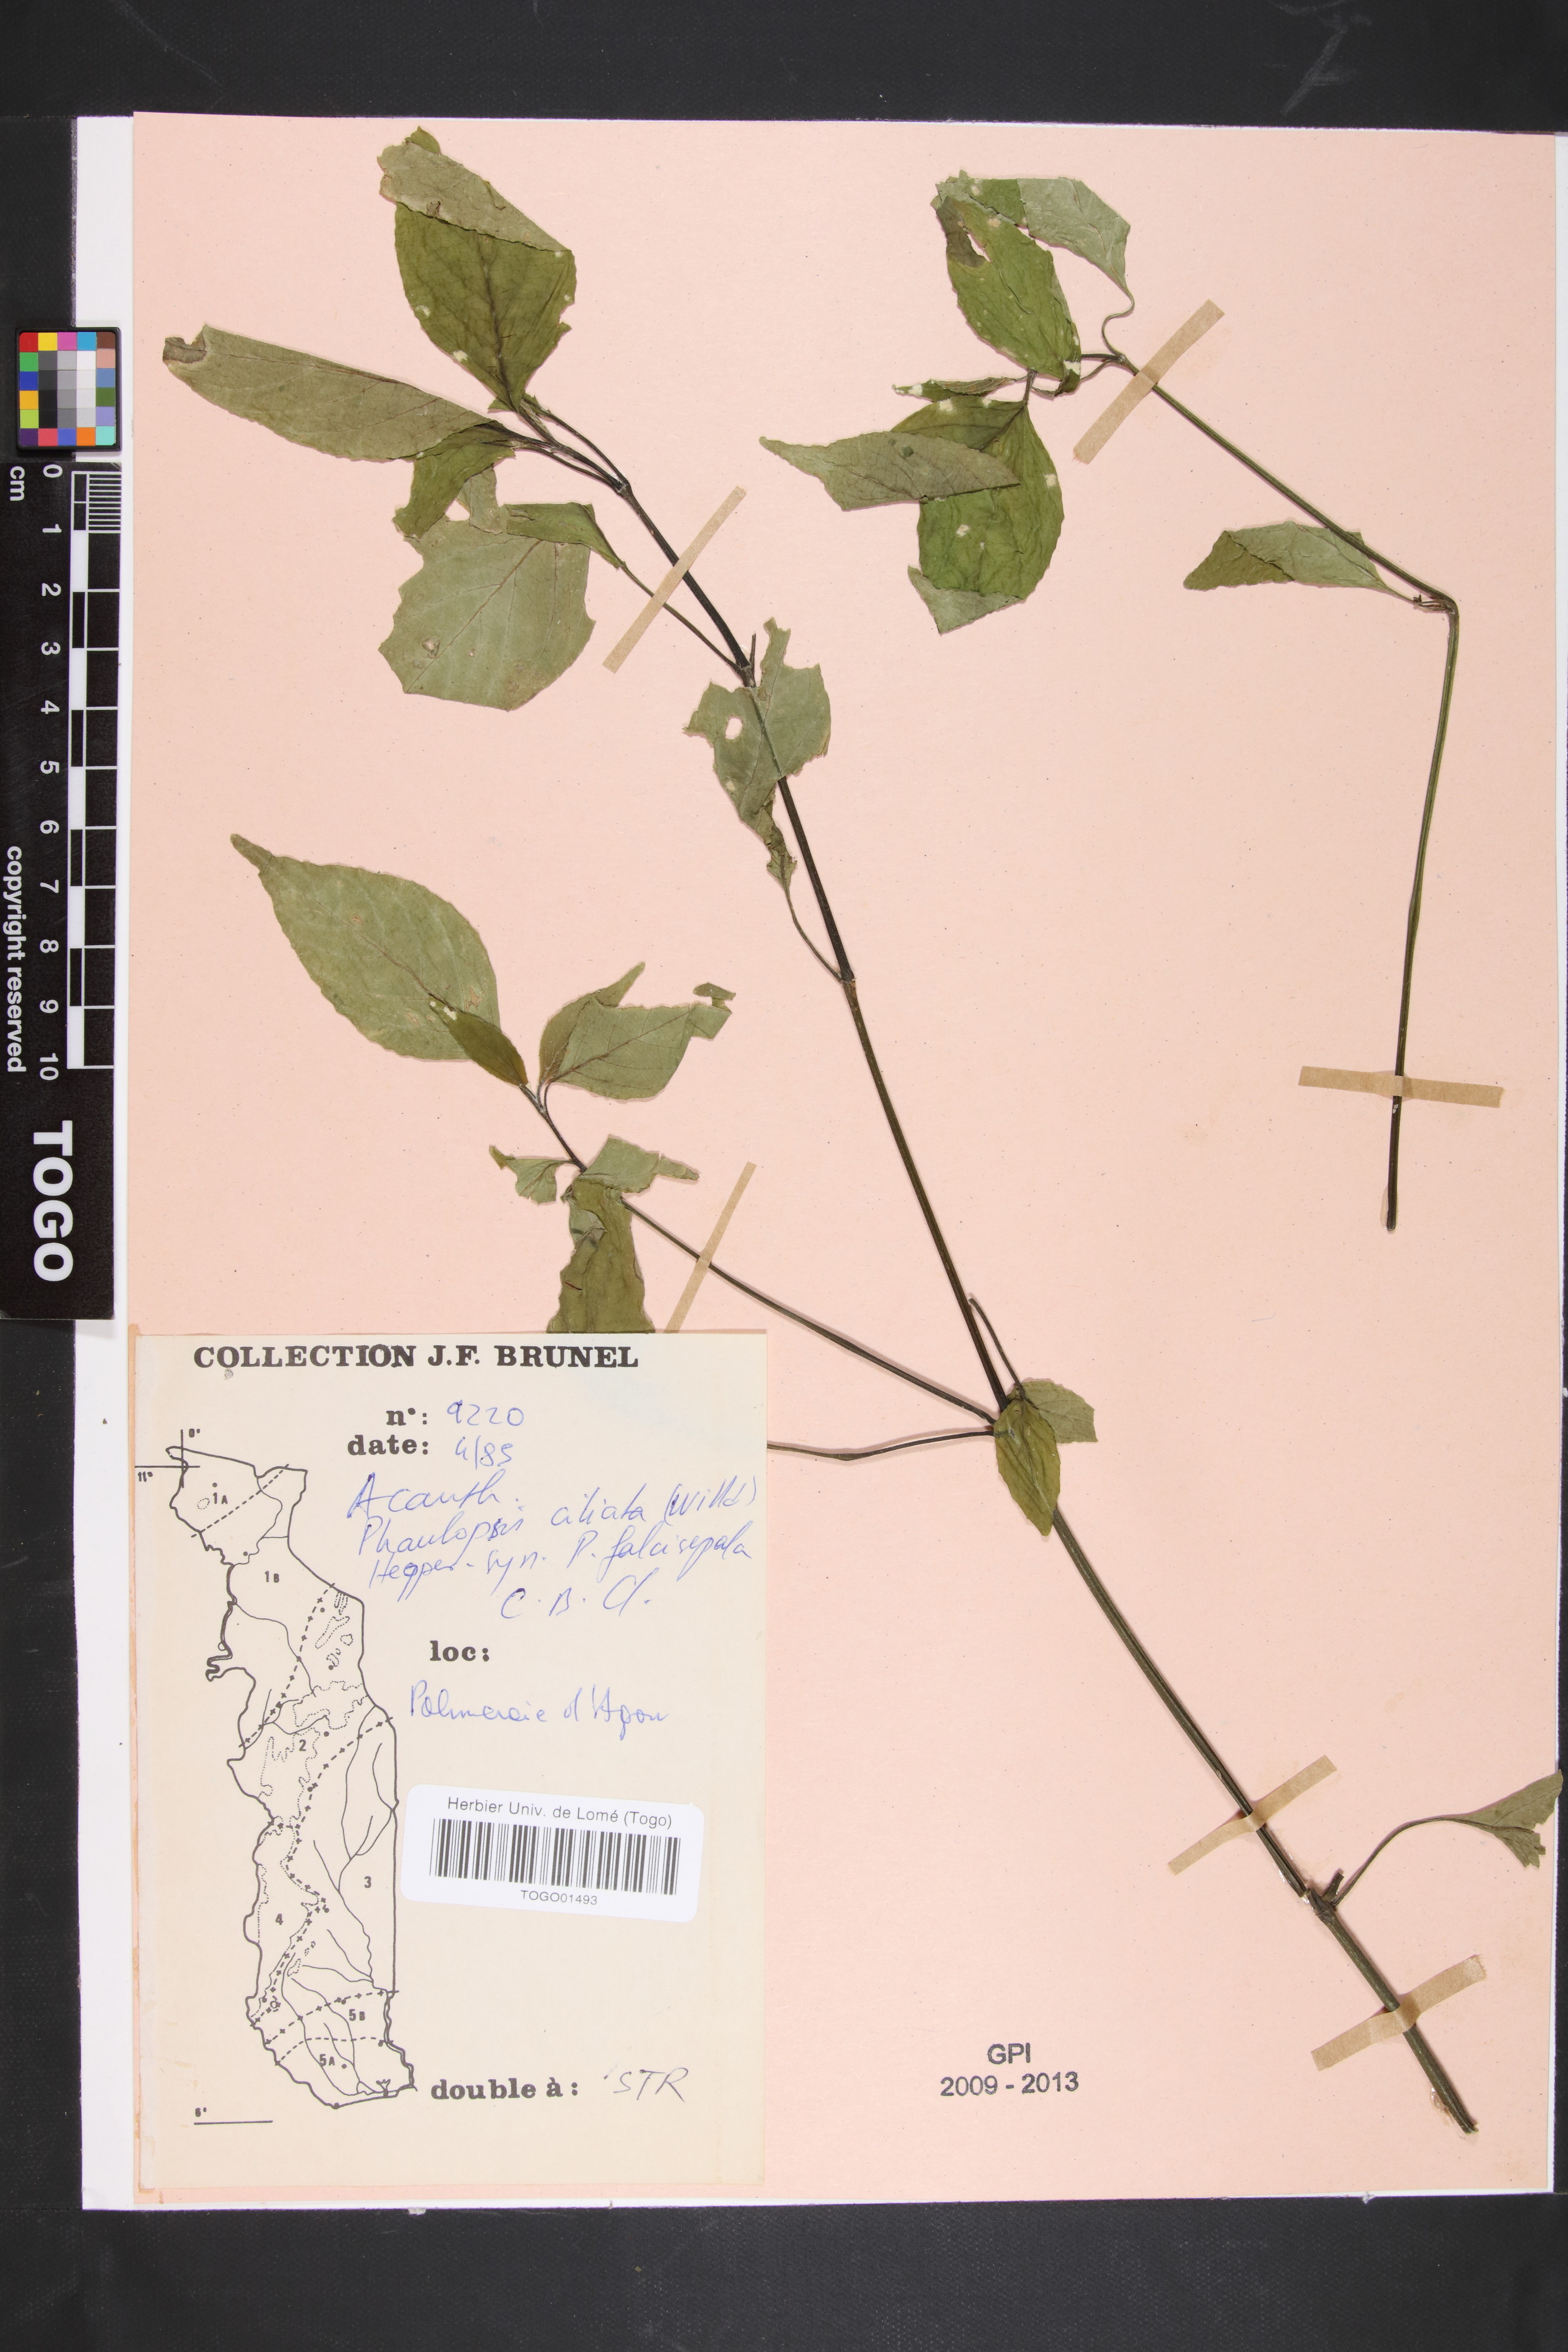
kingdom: Plantae
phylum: Tracheophyta
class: Magnoliopsida
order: Lamiales
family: Acanthaceae
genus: Phaulopsis
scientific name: Phaulopsis ciliata
